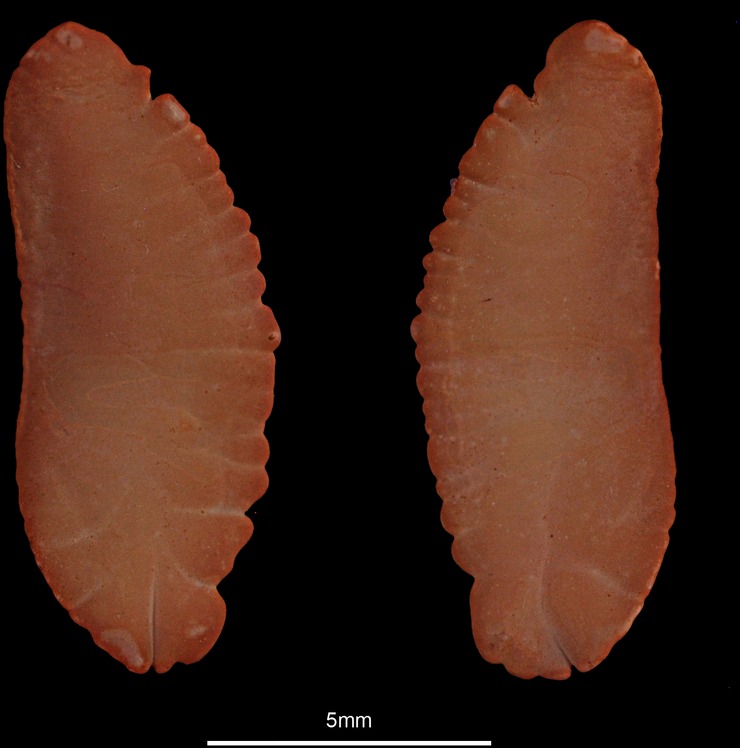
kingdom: Animalia
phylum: Chordata
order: Gadiformes
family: Lotidae
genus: Molva
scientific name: Molva molva
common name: Ling
